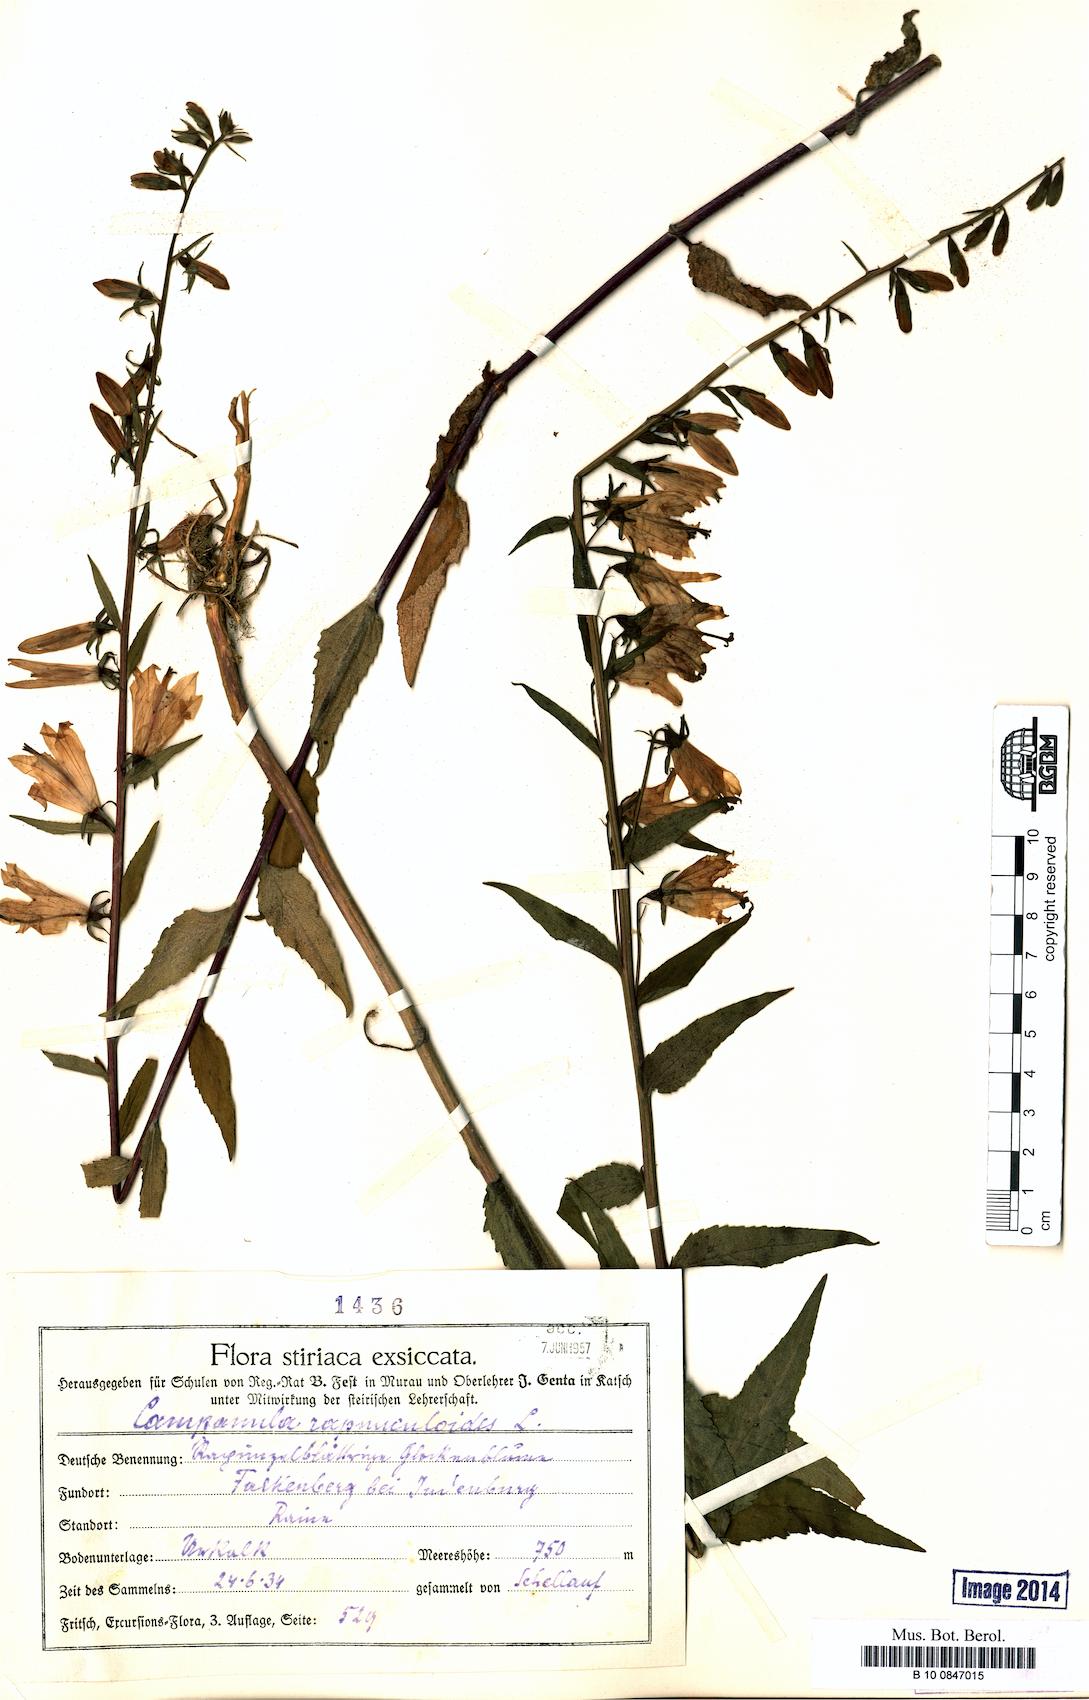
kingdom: Plantae
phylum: Tracheophyta
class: Magnoliopsida
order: Asterales
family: Campanulaceae
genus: Campanula
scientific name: Campanula rapunculoides
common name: Creeping bellflower
